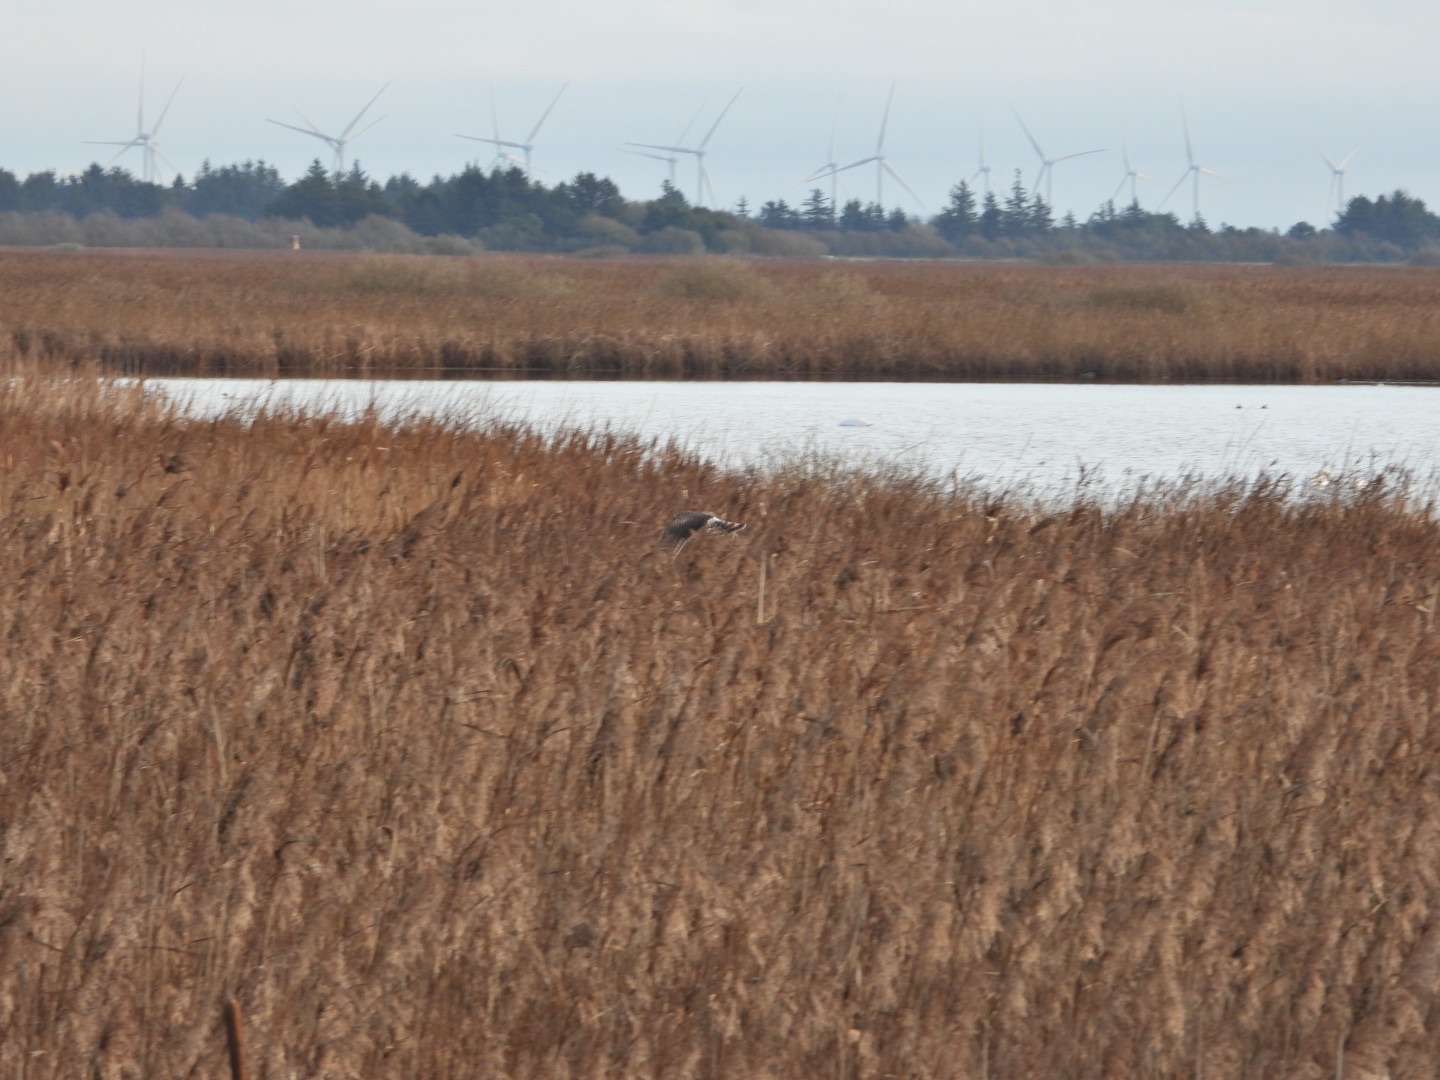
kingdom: Animalia
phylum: Chordata
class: Aves
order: Accipitriformes
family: Accipitridae
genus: Circus
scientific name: Circus cyaneus
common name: Blå kærhøg
